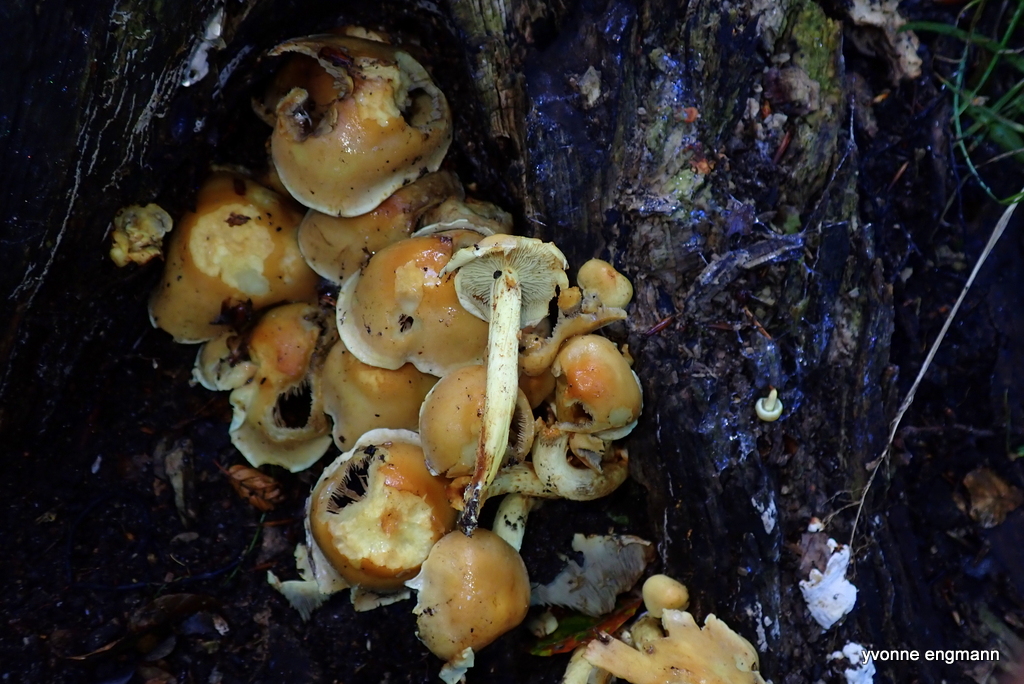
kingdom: Fungi
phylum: Basidiomycota
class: Agaricomycetes
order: Agaricales
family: Strophariaceae
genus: Hypholoma
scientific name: Hypholoma fasciculare
